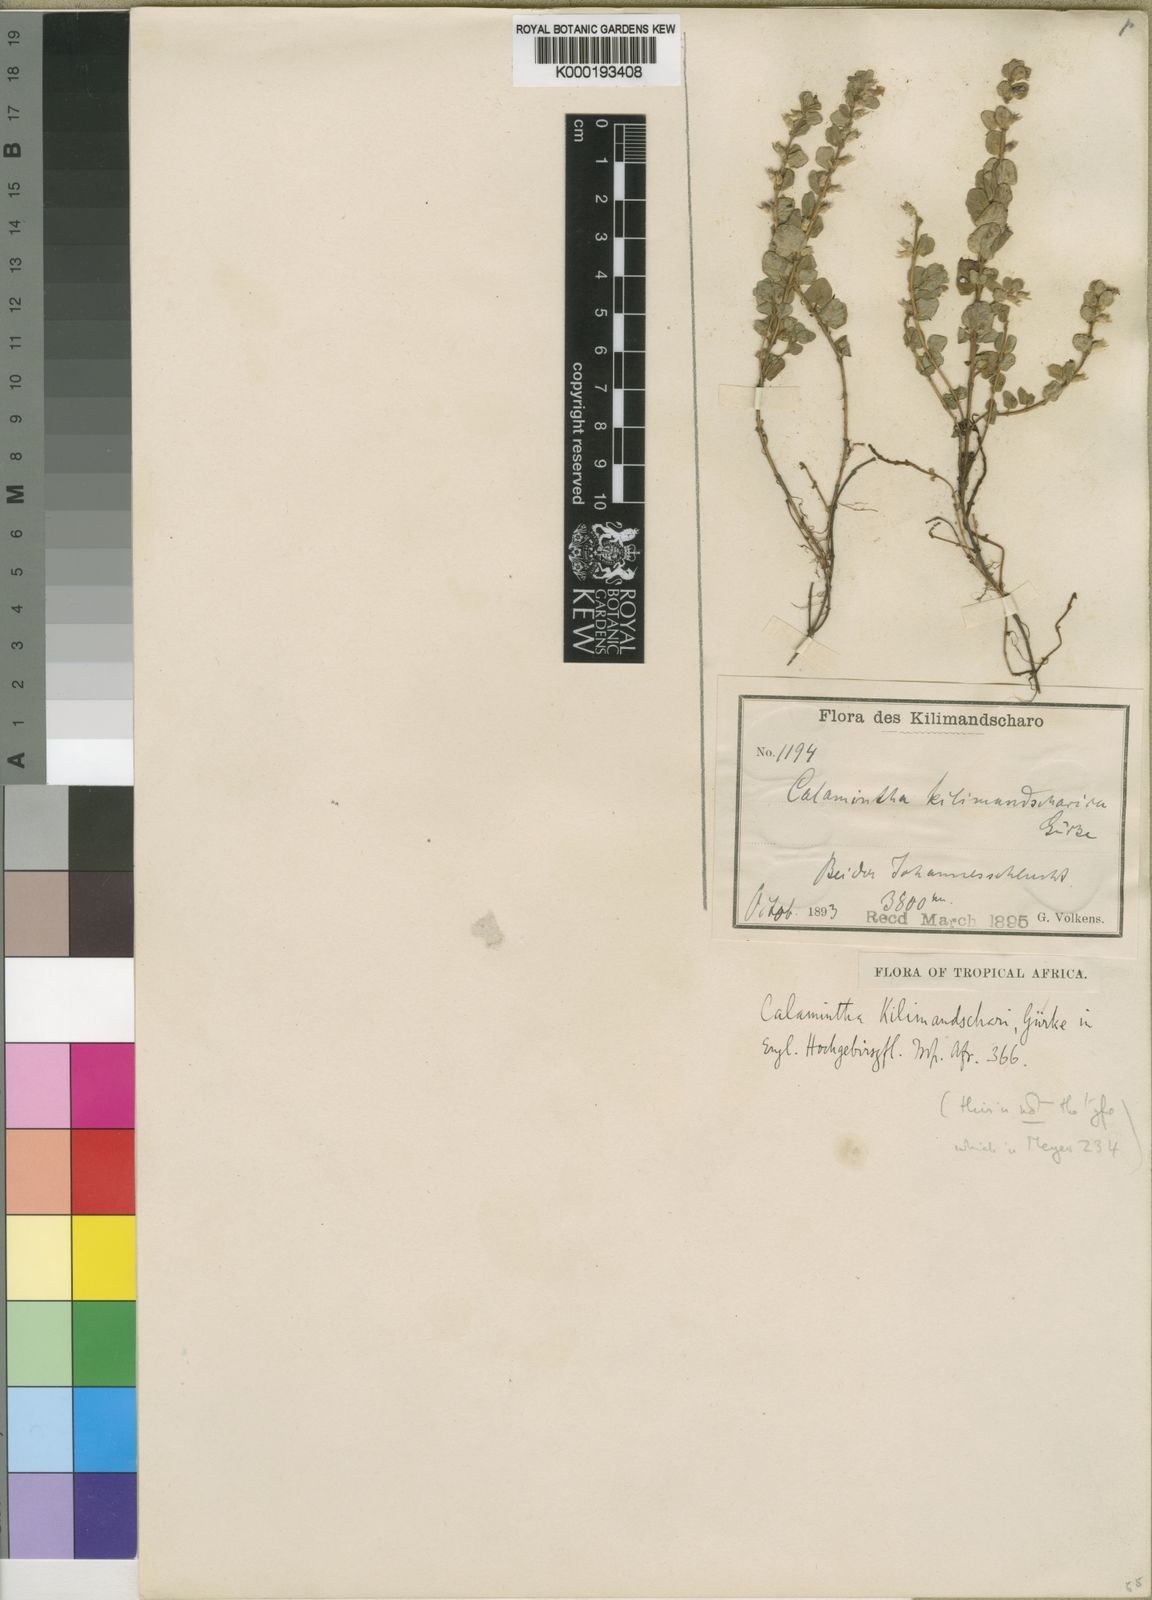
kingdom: Plantae
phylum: Tracheophyta
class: Magnoliopsida
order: Lamiales
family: Lamiaceae
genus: Clinopodium
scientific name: Clinopodium
